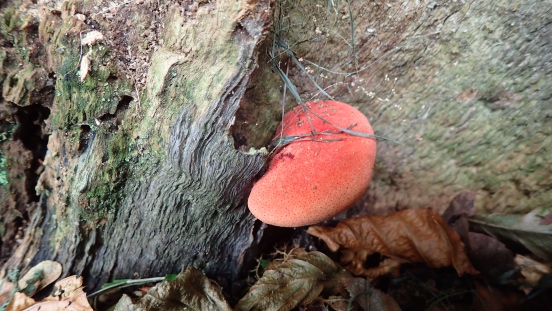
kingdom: Fungi
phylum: Basidiomycota
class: Agaricomycetes
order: Agaricales
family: Fistulinaceae
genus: Fistulina
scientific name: Fistulina hepatica
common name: oksetunge
